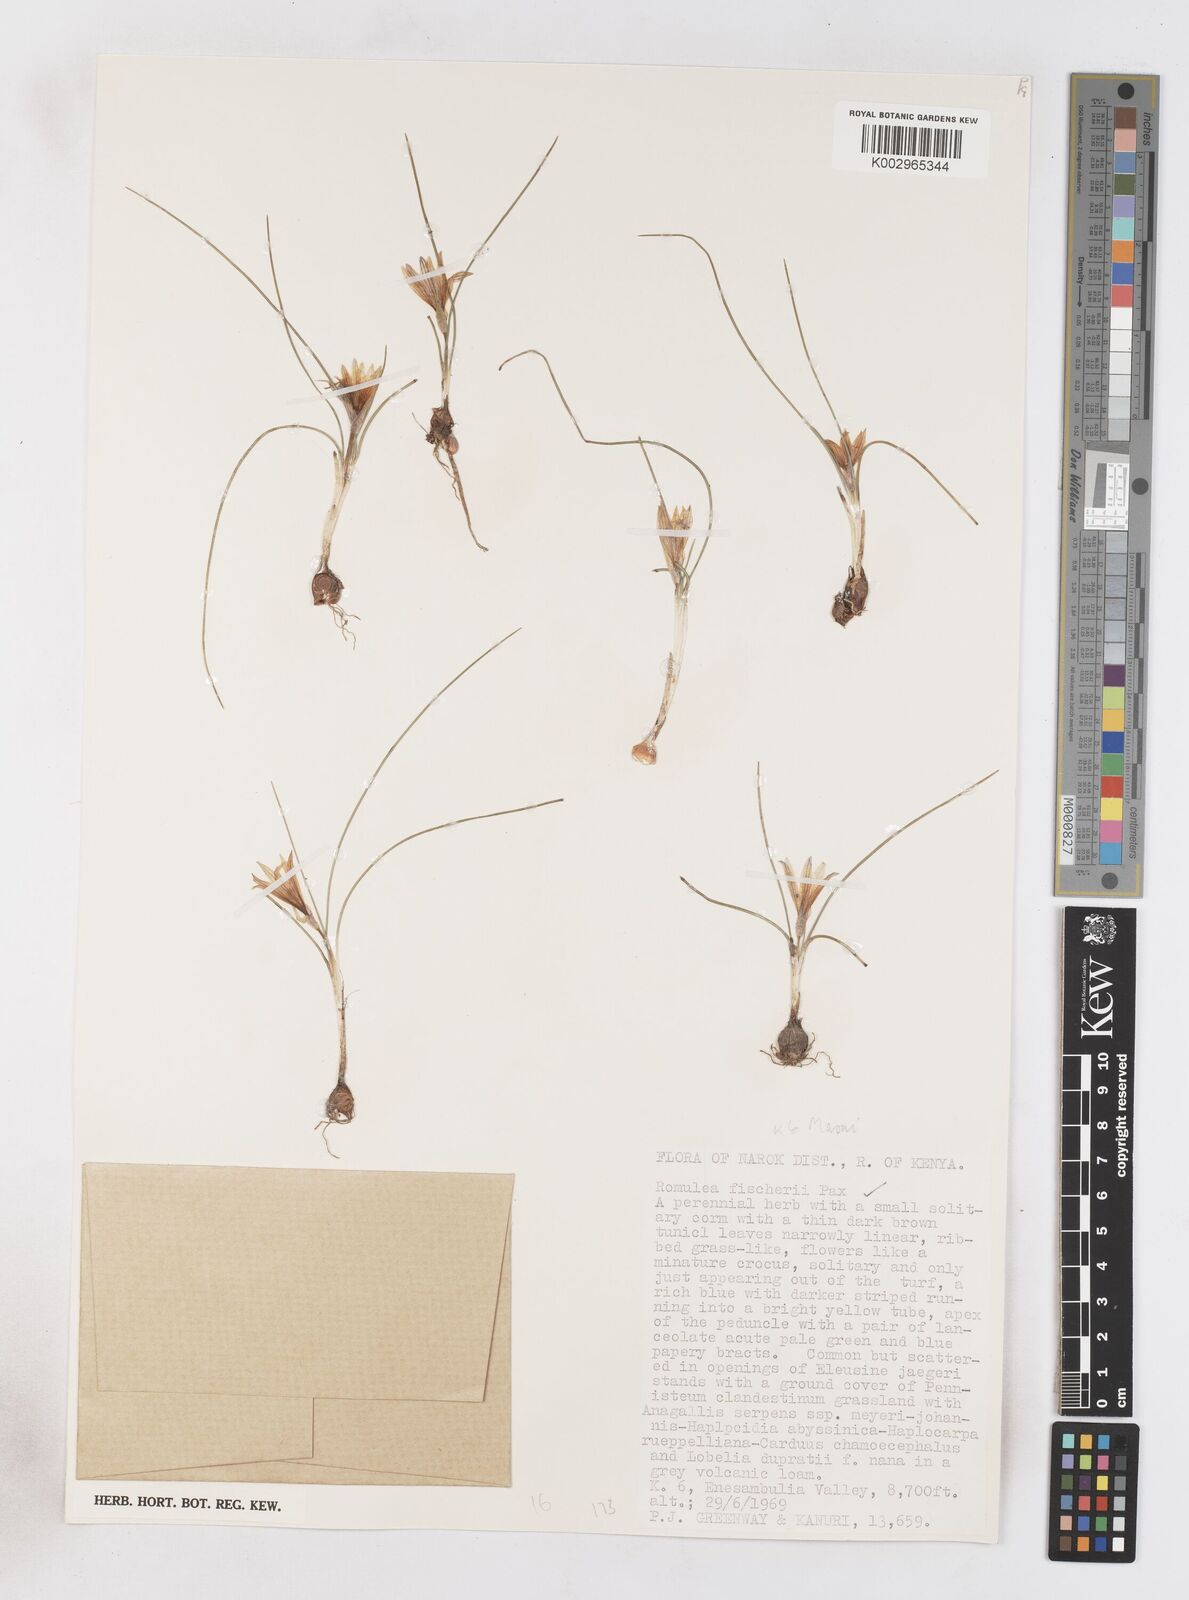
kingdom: Plantae
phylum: Tracheophyta
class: Liliopsida
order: Asparagales
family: Iridaceae
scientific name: Iridaceae
